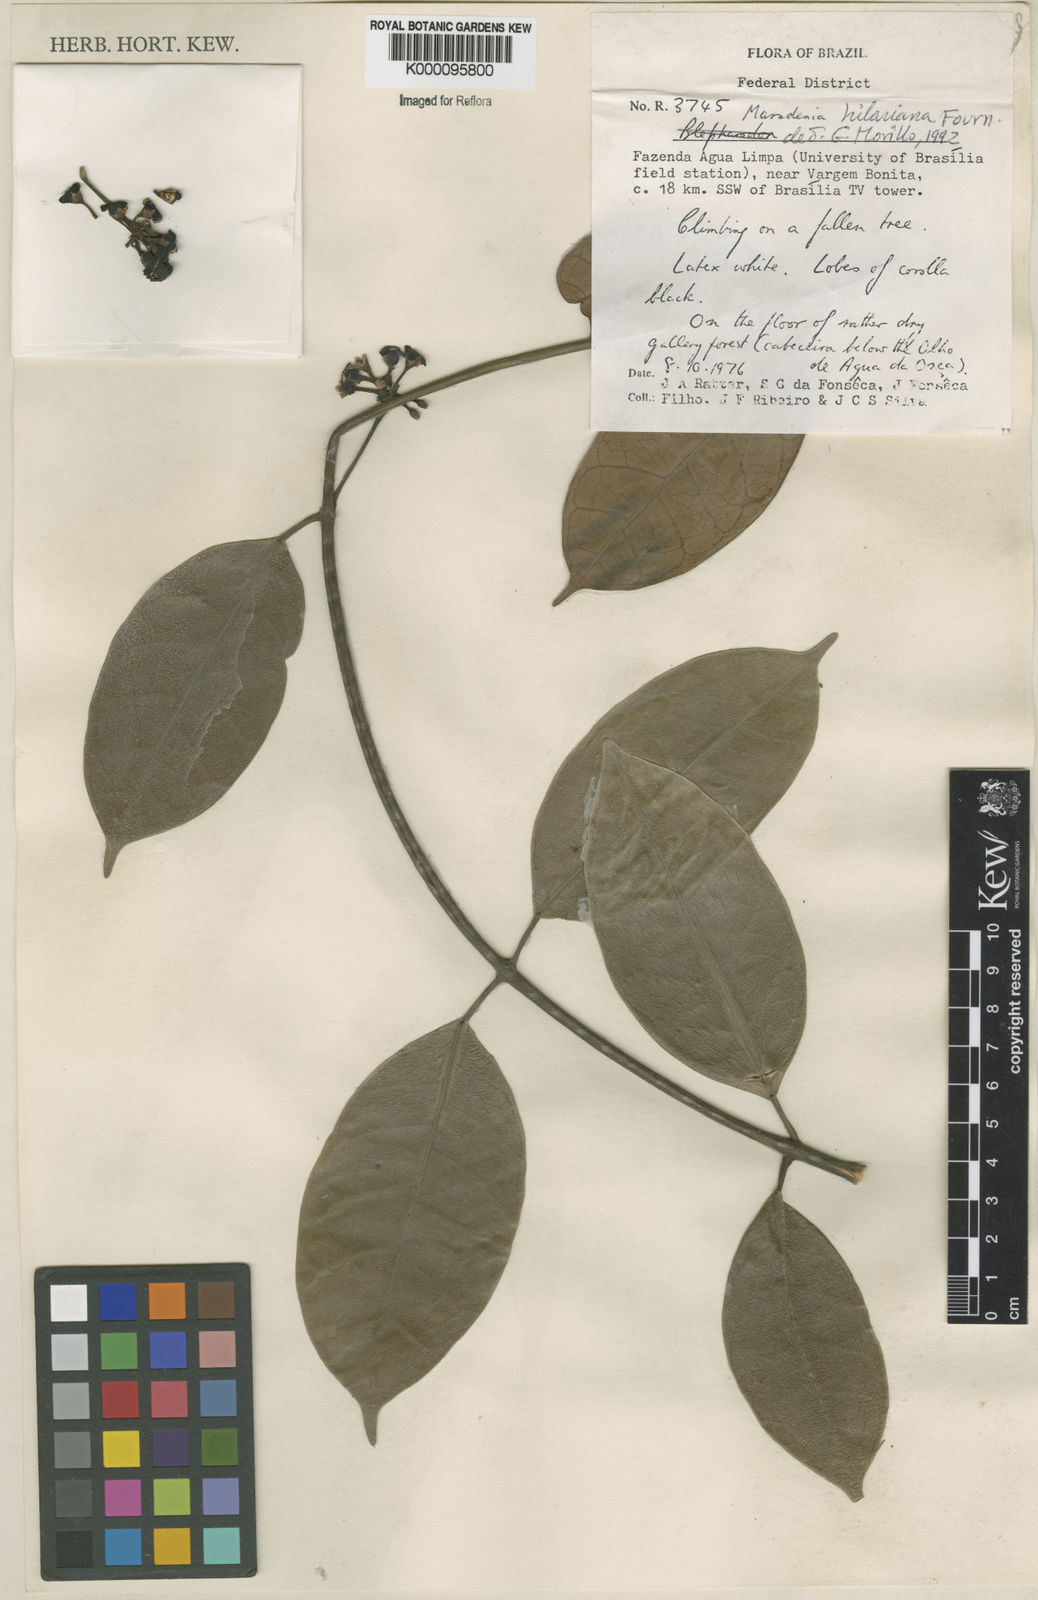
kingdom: Plantae
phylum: Tracheophyta
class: Magnoliopsida
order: Gentianales
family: Apocynaceae
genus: Ruehssia
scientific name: Ruehssia hilariana
